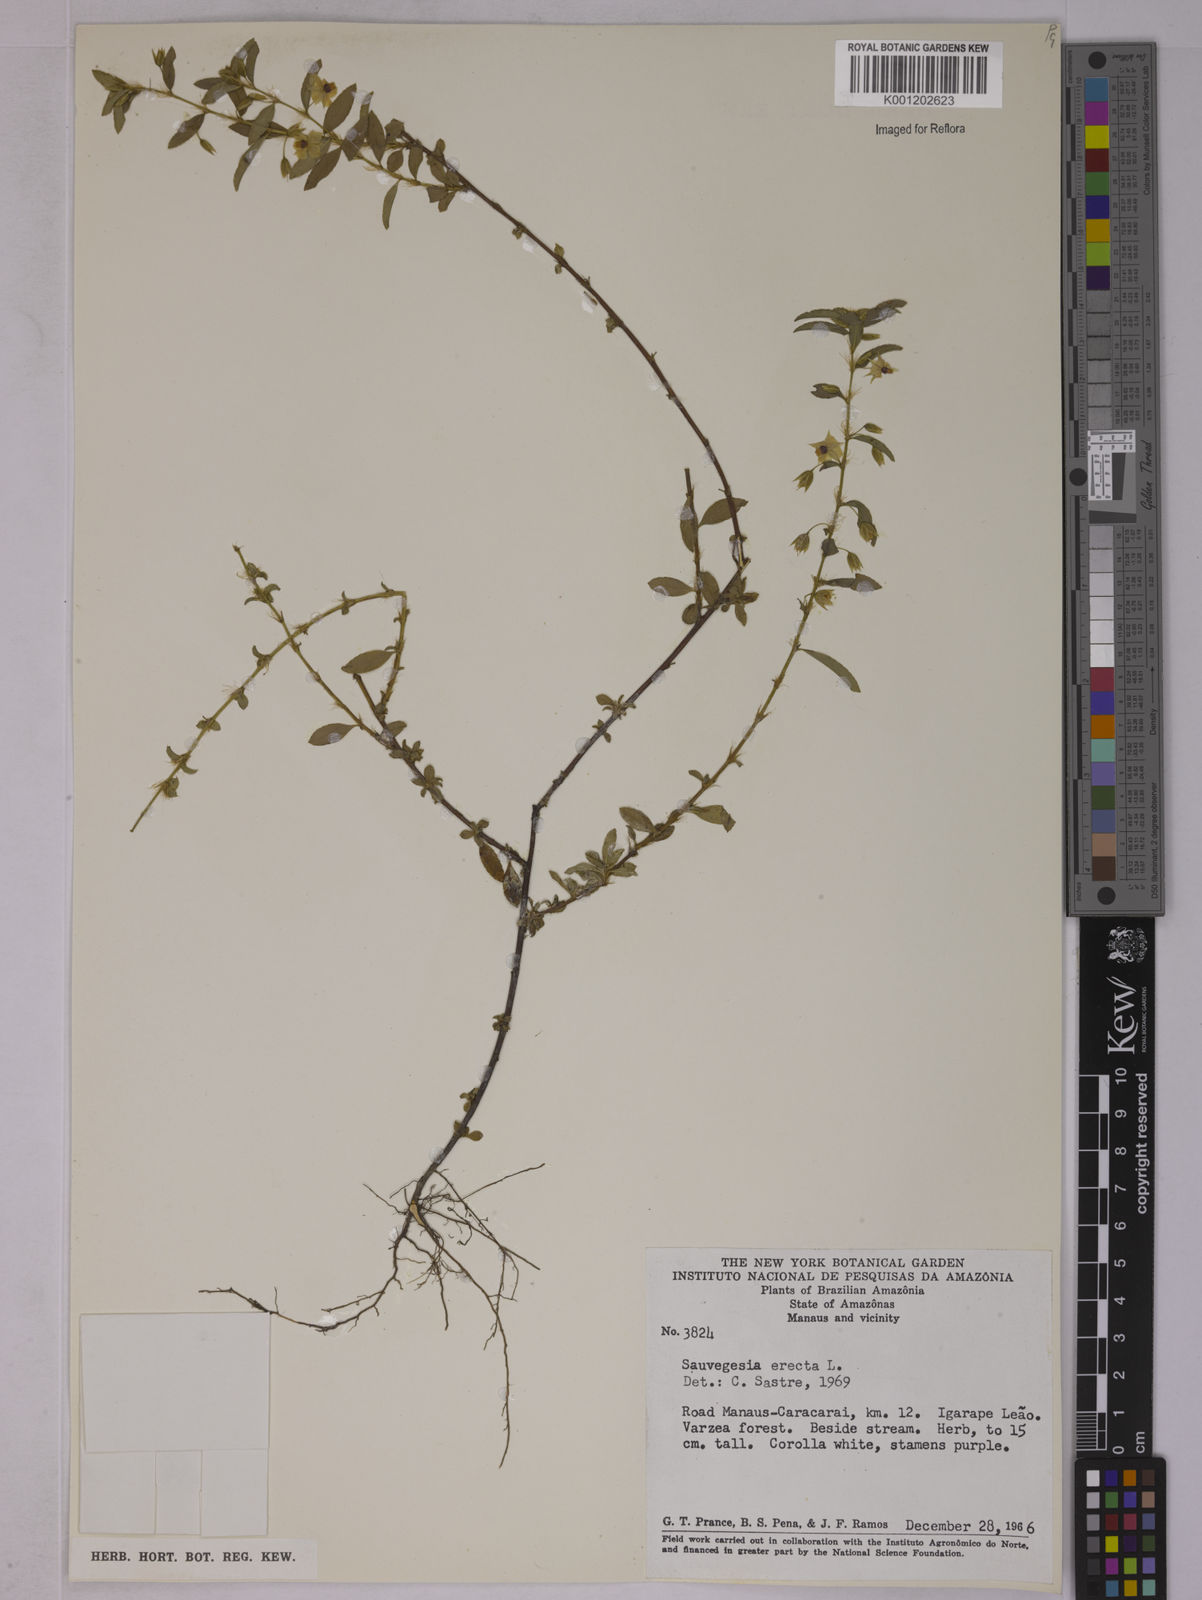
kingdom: Plantae
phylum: Tracheophyta
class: Magnoliopsida
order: Malpighiales
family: Ochnaceae
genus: Sauvagesia
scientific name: Sauvagesia erecta
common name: Creole tea
